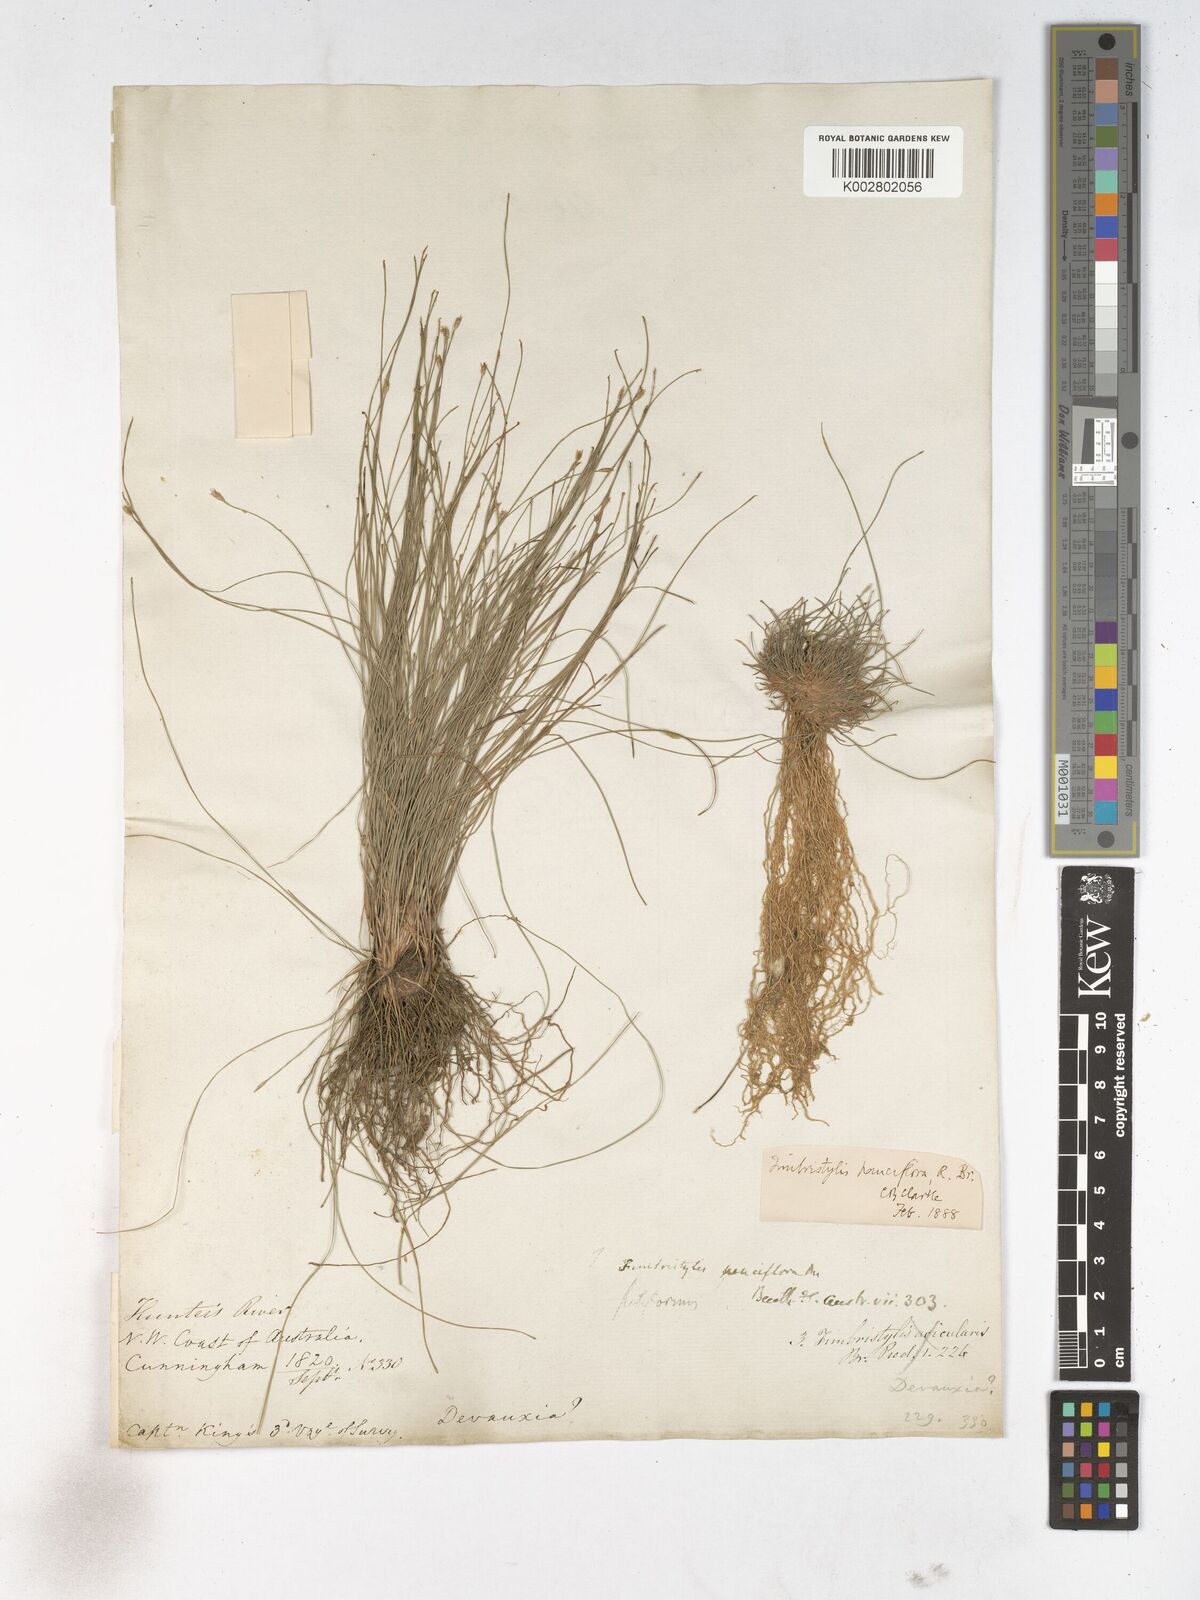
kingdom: Plantae
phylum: Tracheophyta
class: Liliopsida
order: Poales
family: Cyperaceae
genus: Fimbristylis
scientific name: Fimbristylis pauciflora
